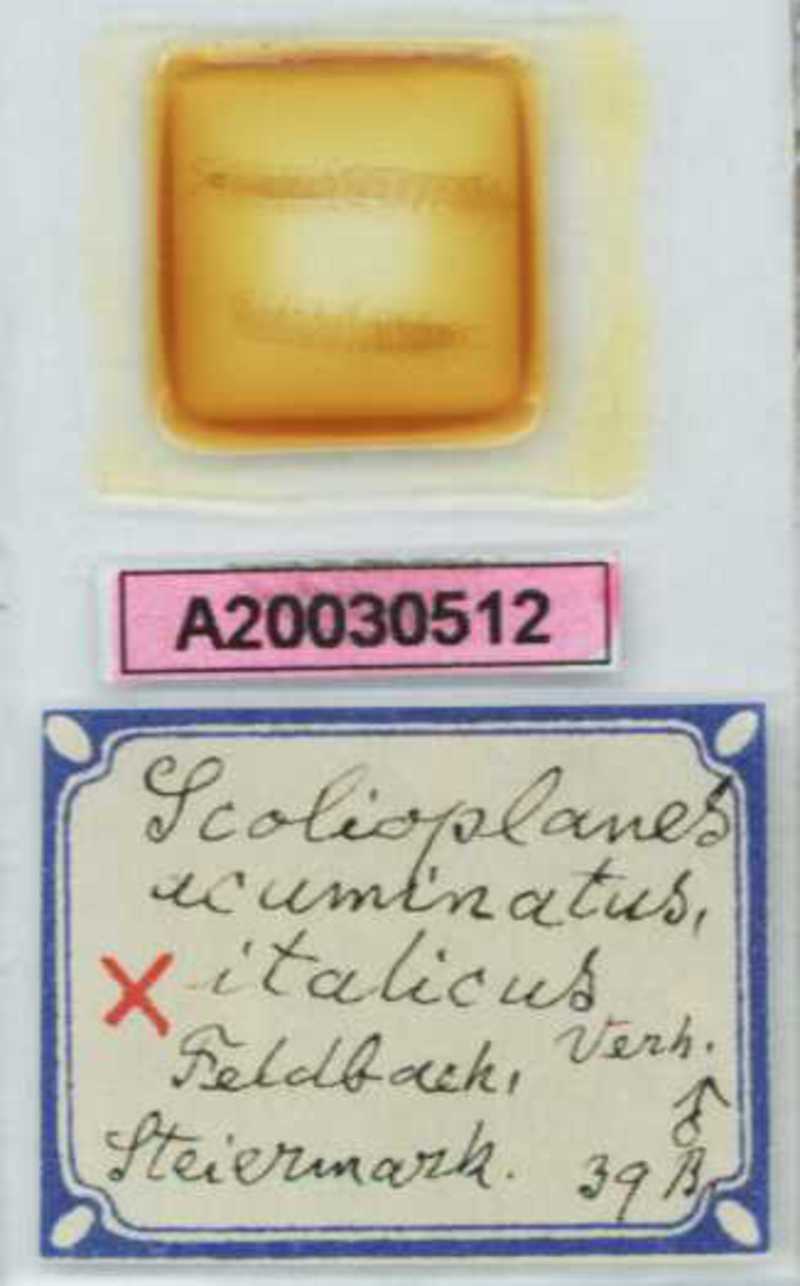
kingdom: Animalia
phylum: Arthropoda
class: Chilopoda
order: Geophilomorpha
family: Linotaeniidae
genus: Strigamia
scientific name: Strigamia acuminata
